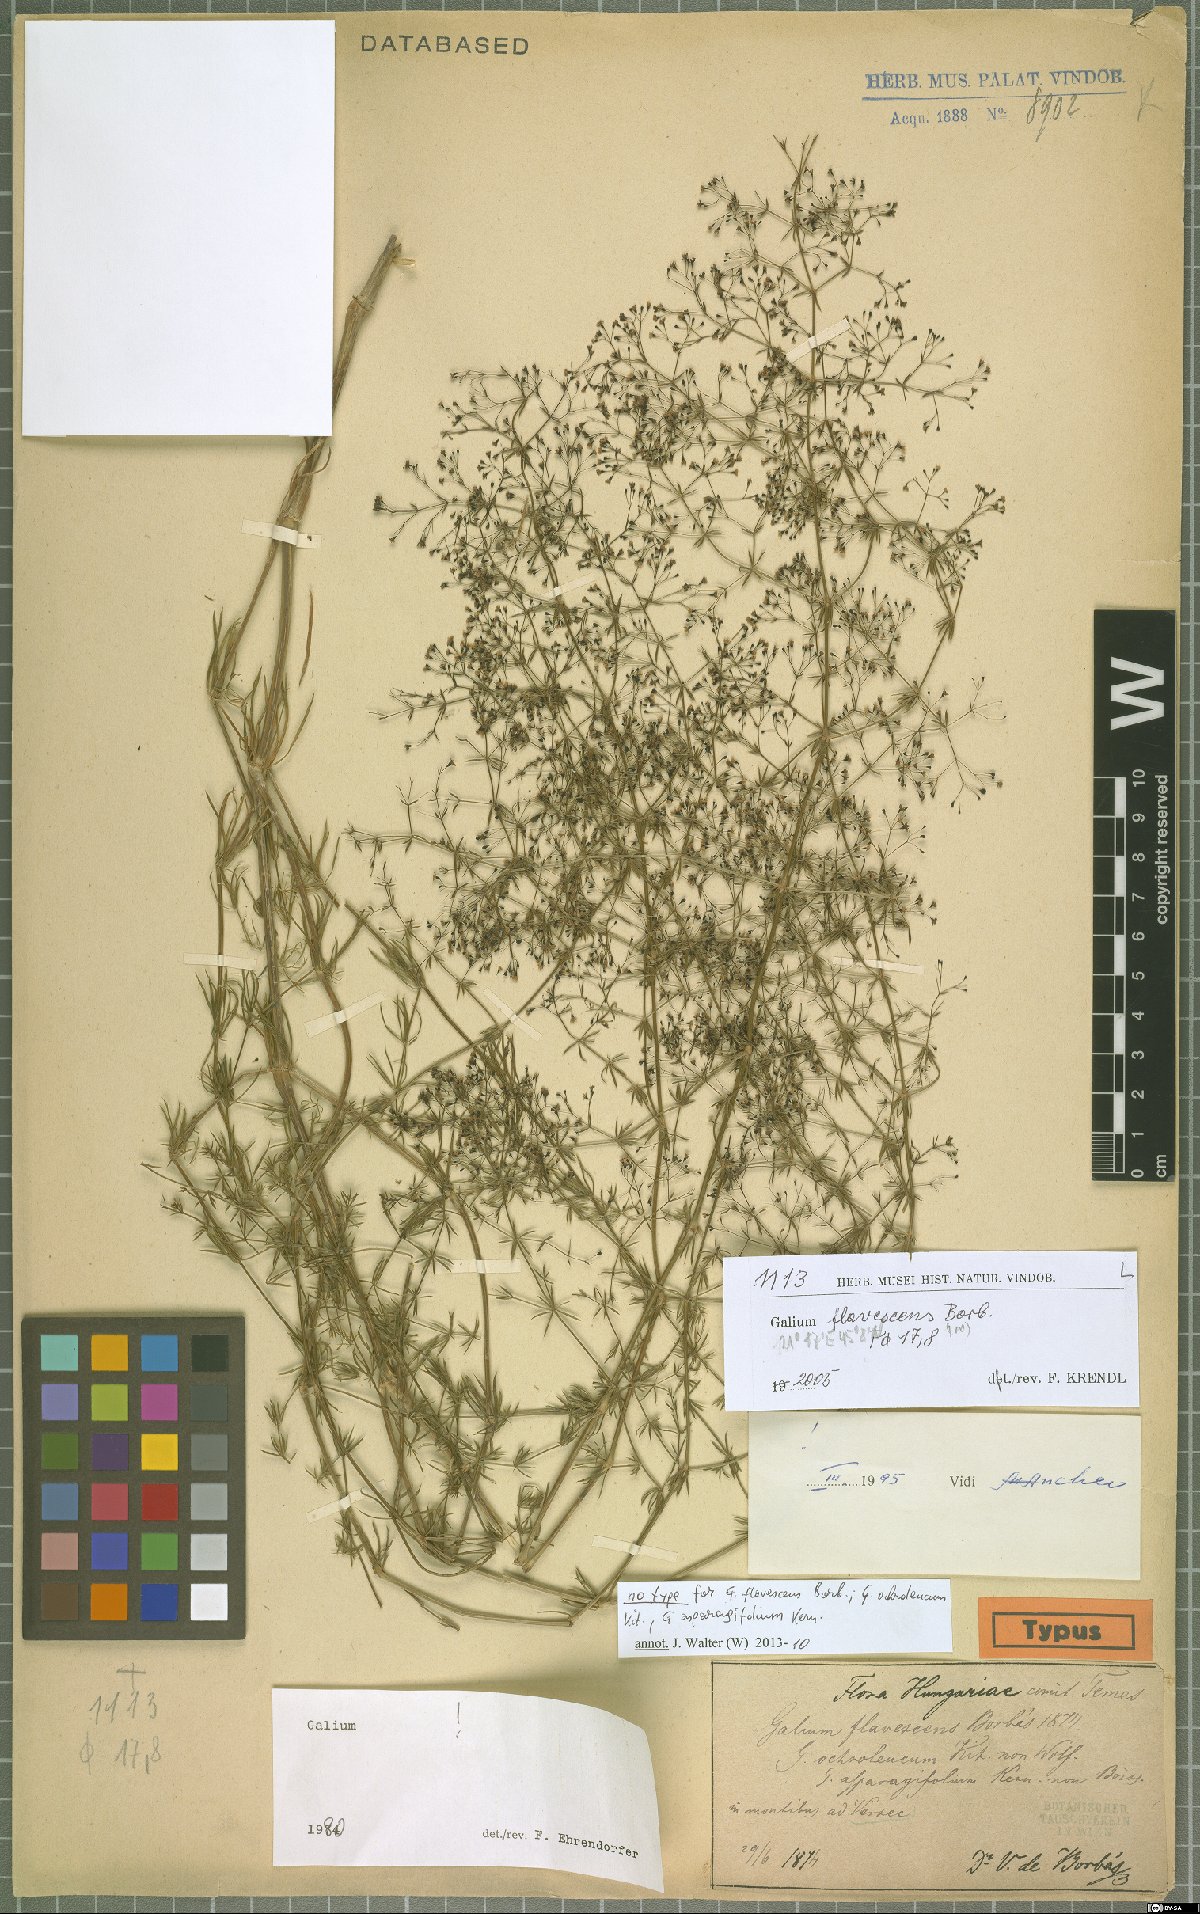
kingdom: Plantae
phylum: Tracheophyta
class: Magnoliopsida
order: Gentianales
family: Rubiaceae
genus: Galium
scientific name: Galium flavescens
